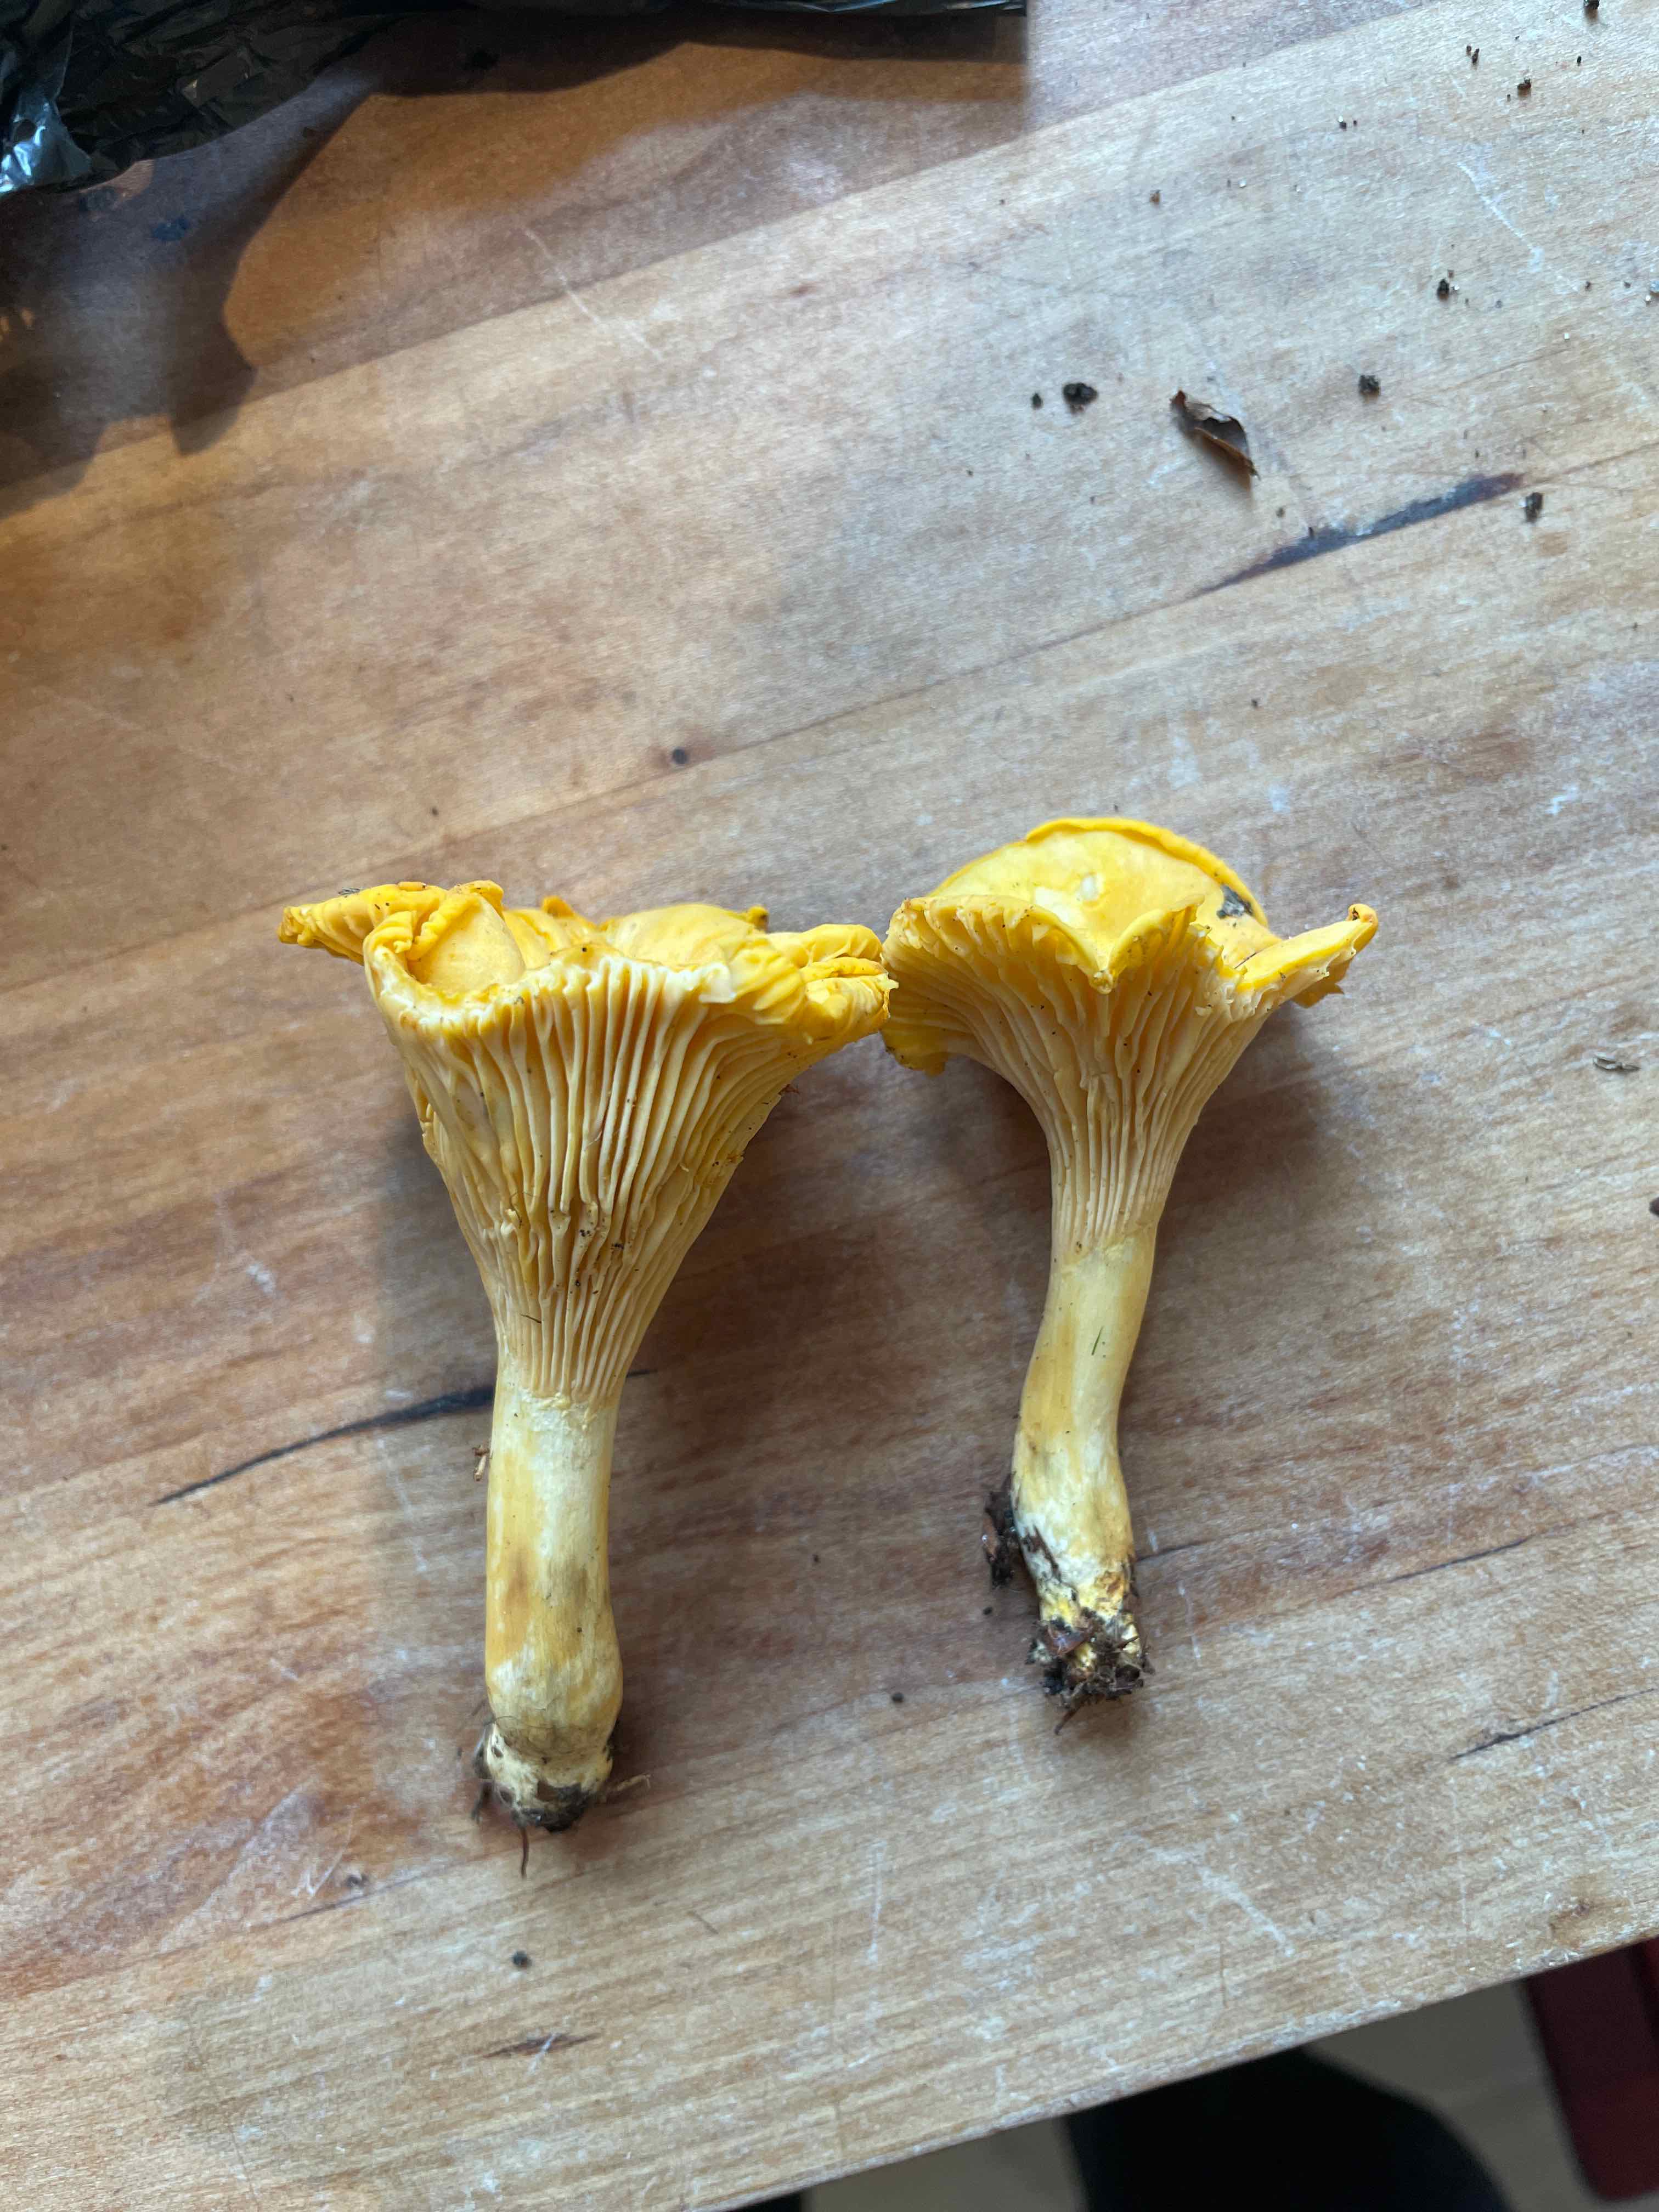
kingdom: Fungi
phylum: Basidiomycota
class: Agaricomycetes
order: Cantharellales
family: Hydnaceae
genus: Cantharellus
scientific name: Cantharellus cibarius
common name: almindelig kantarel
